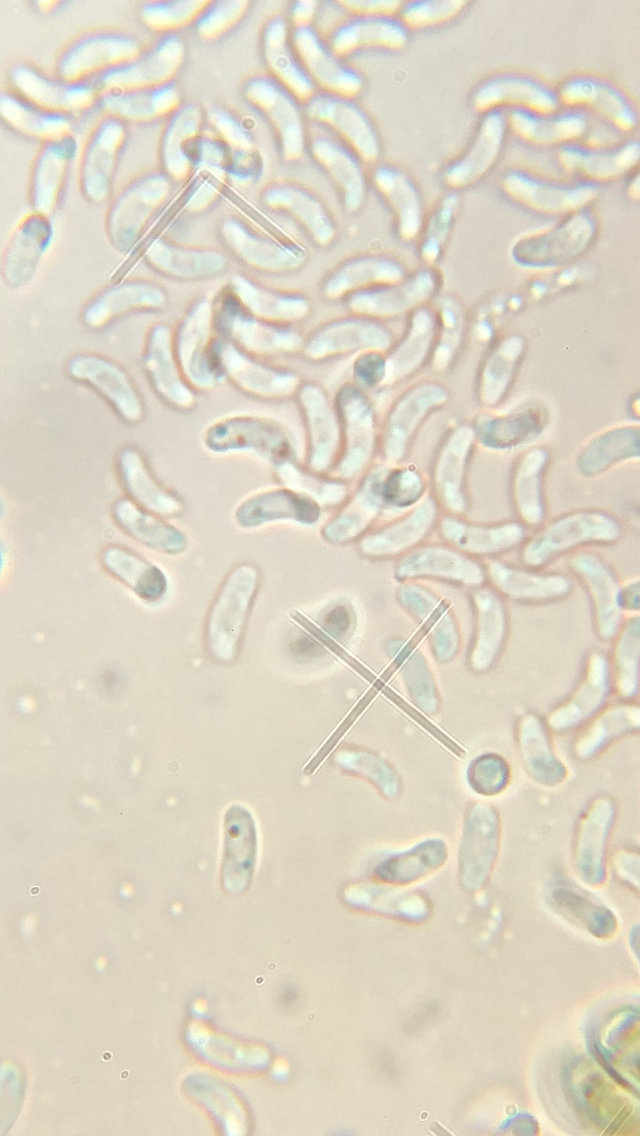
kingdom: Fungi
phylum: Basidiomycota
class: Agaricomycetes
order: Polyporales
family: Irpicaceae
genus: Ceriporia
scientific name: Ceriporia purpurea
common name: purpur-voksporesvamp
